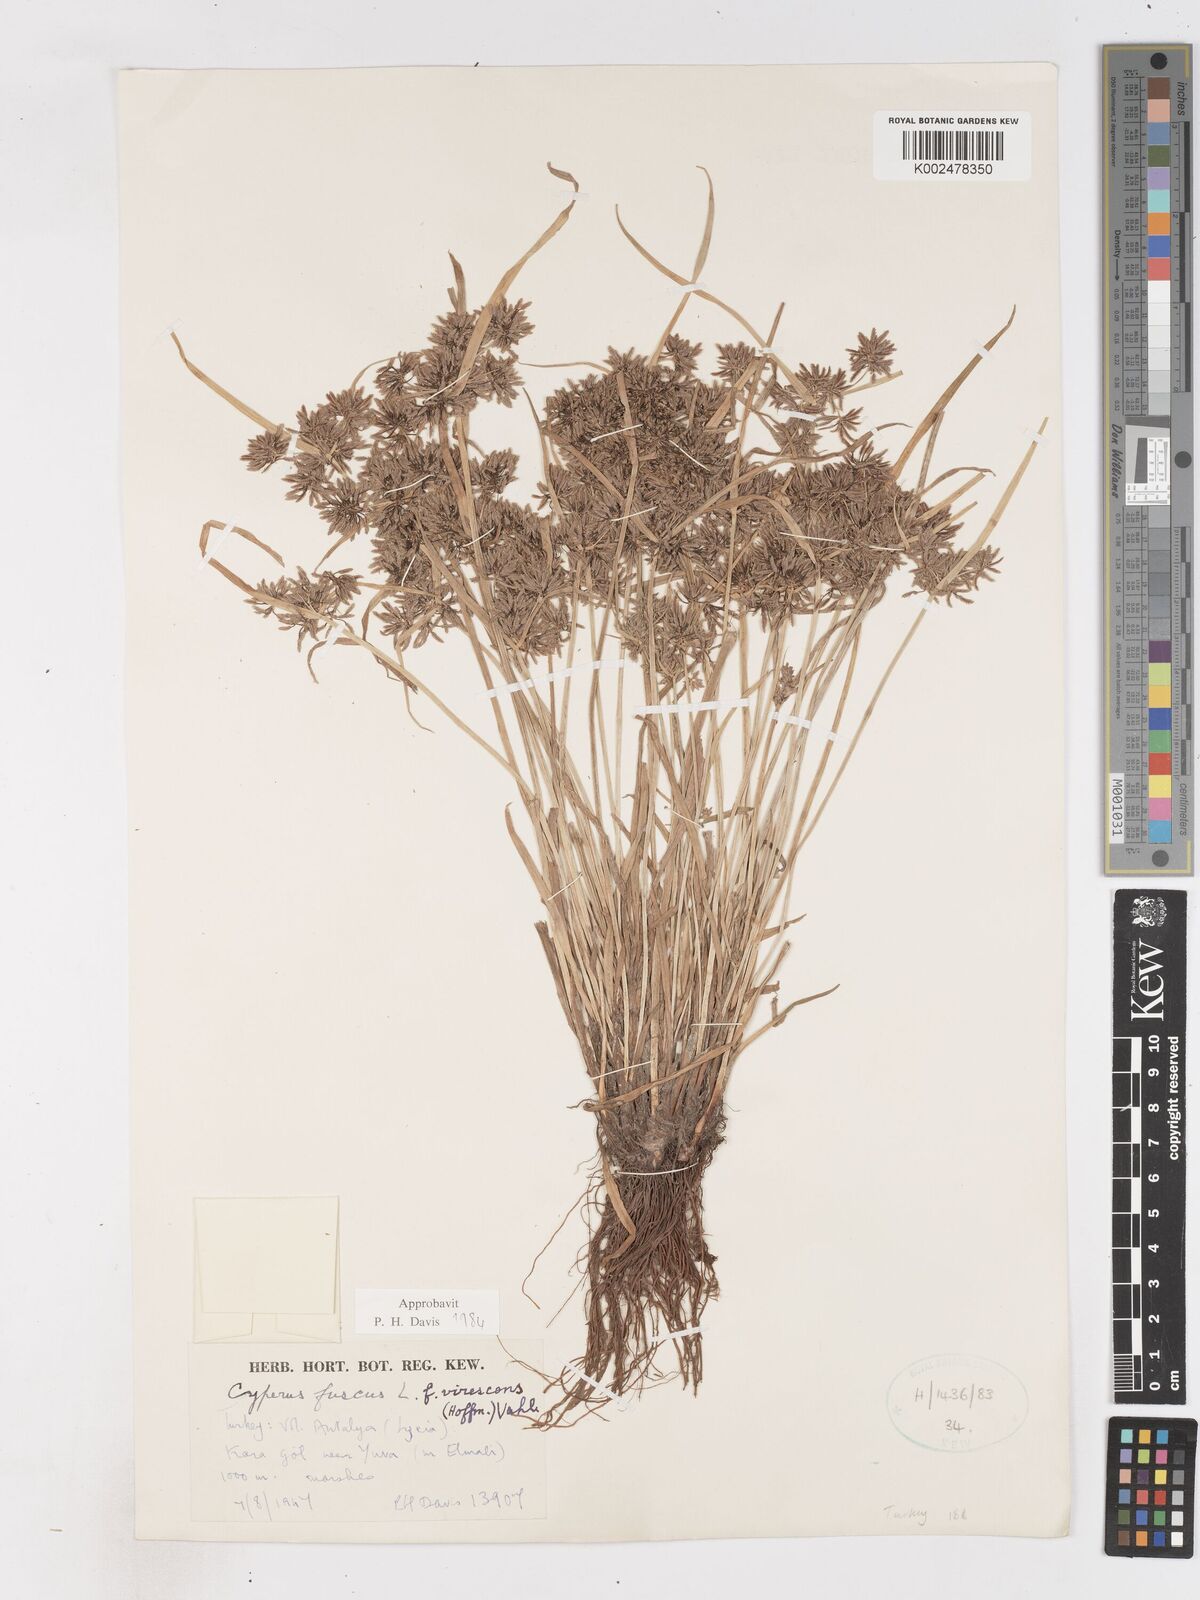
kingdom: Plantae
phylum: Tracheophyta
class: Liliopsida
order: Poales
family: Cyperaceae
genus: Cyperus
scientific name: Cyperus fuscus
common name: Brown galingale
